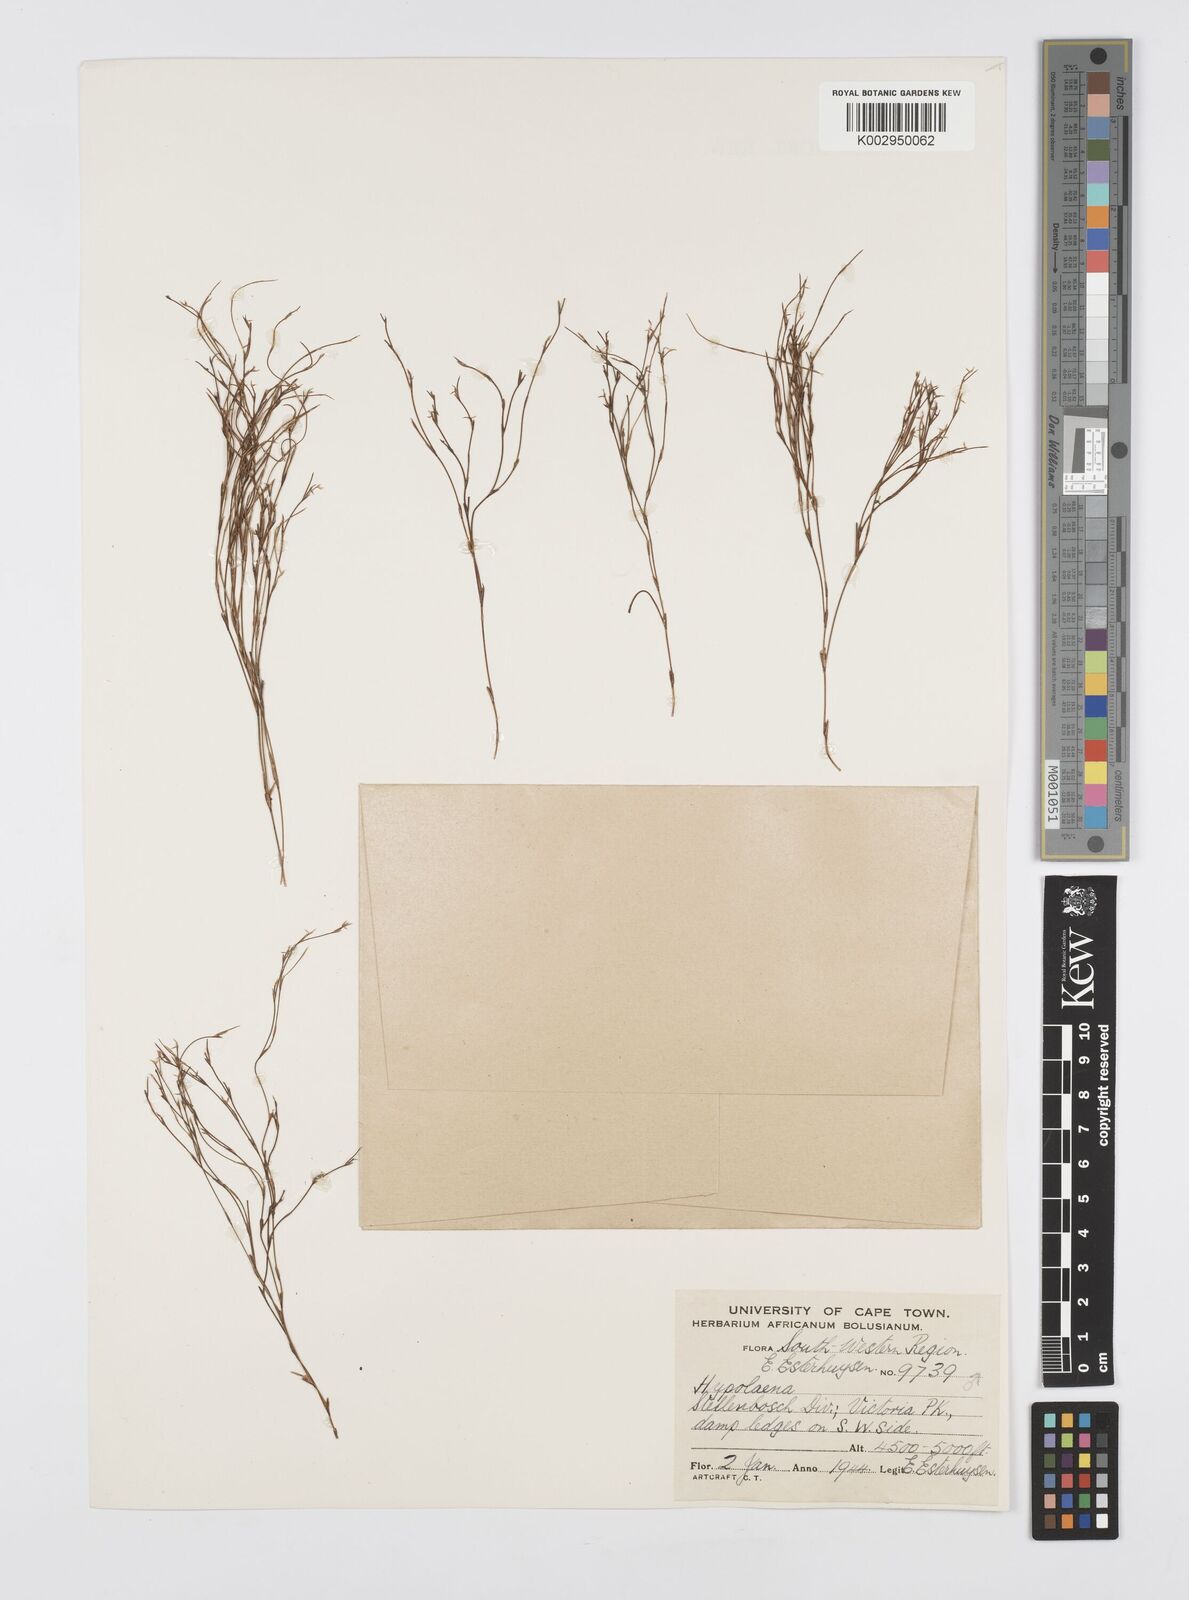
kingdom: Plantae
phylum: Tracheophyta
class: Liliopsida
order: Poales
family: Restionaceae
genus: Anthochortus
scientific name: Anthochortus laxiflorus
